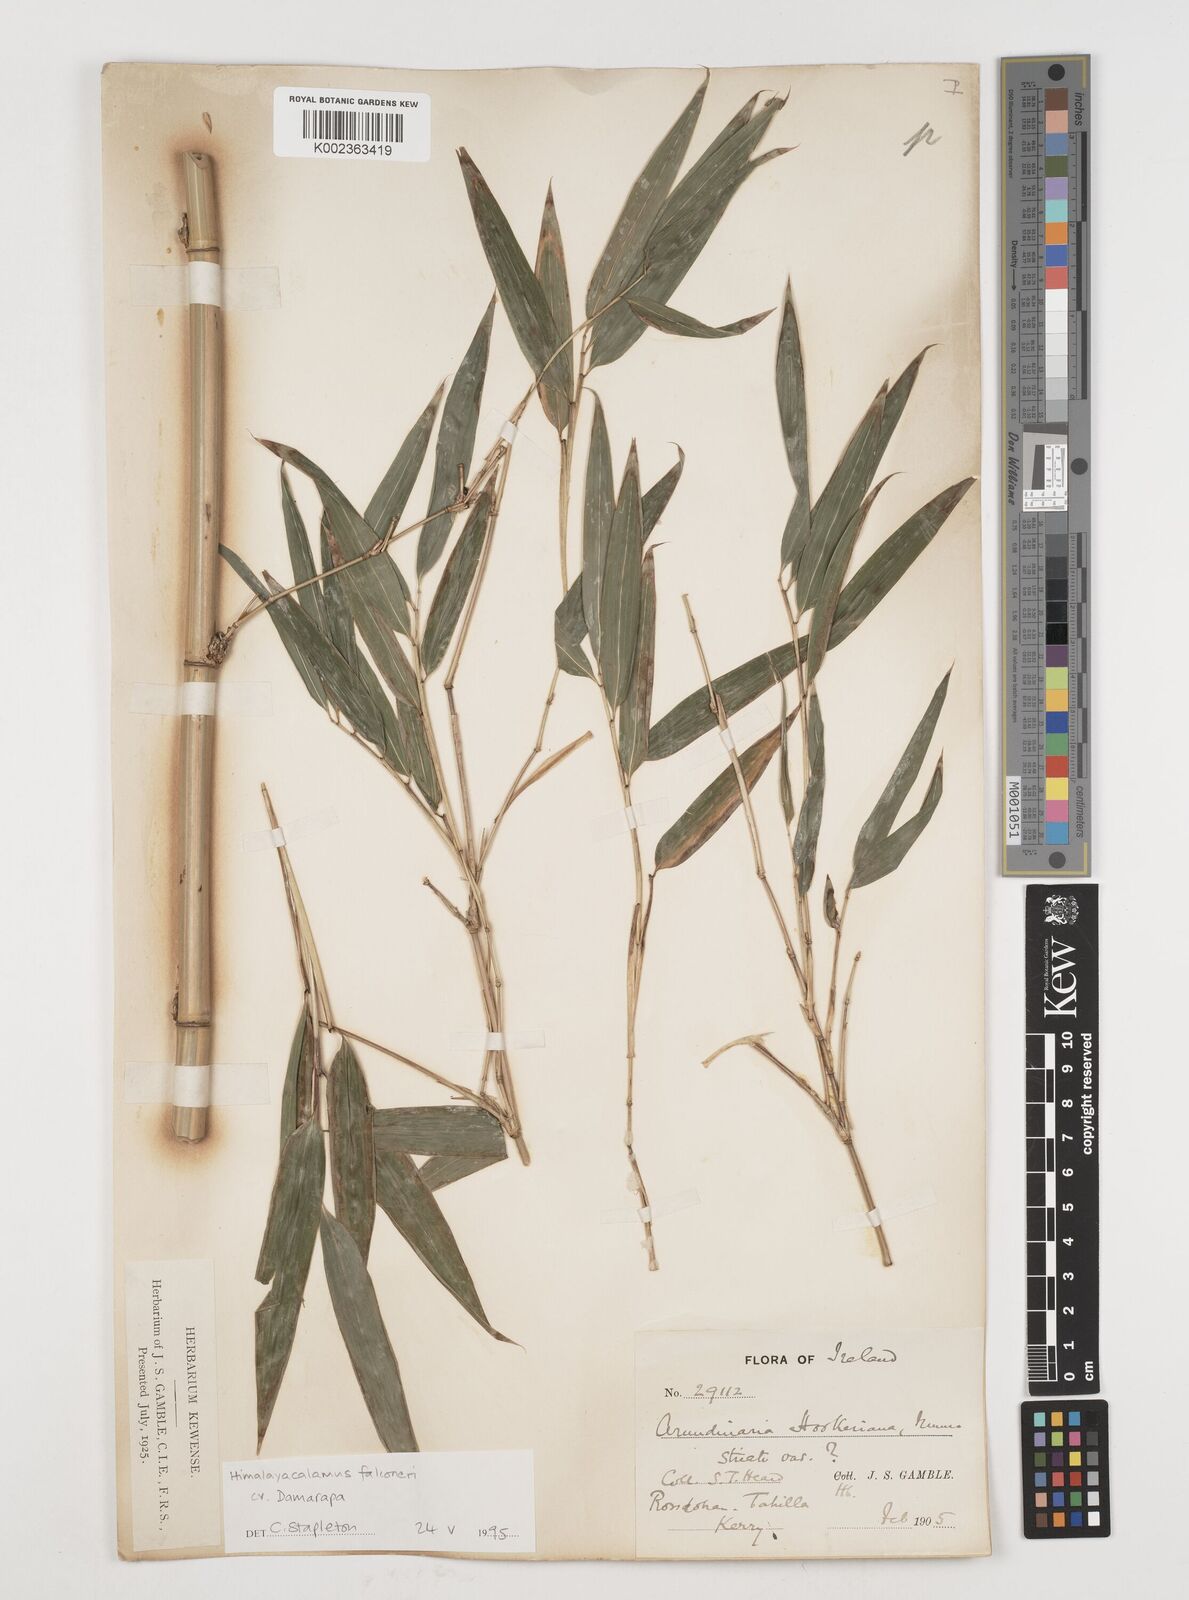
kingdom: Plantae
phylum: Tracheophyta
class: Liliopsida
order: Poales
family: Poaceae
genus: Himalayacalamus
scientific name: Himalayacalamus falconeri
